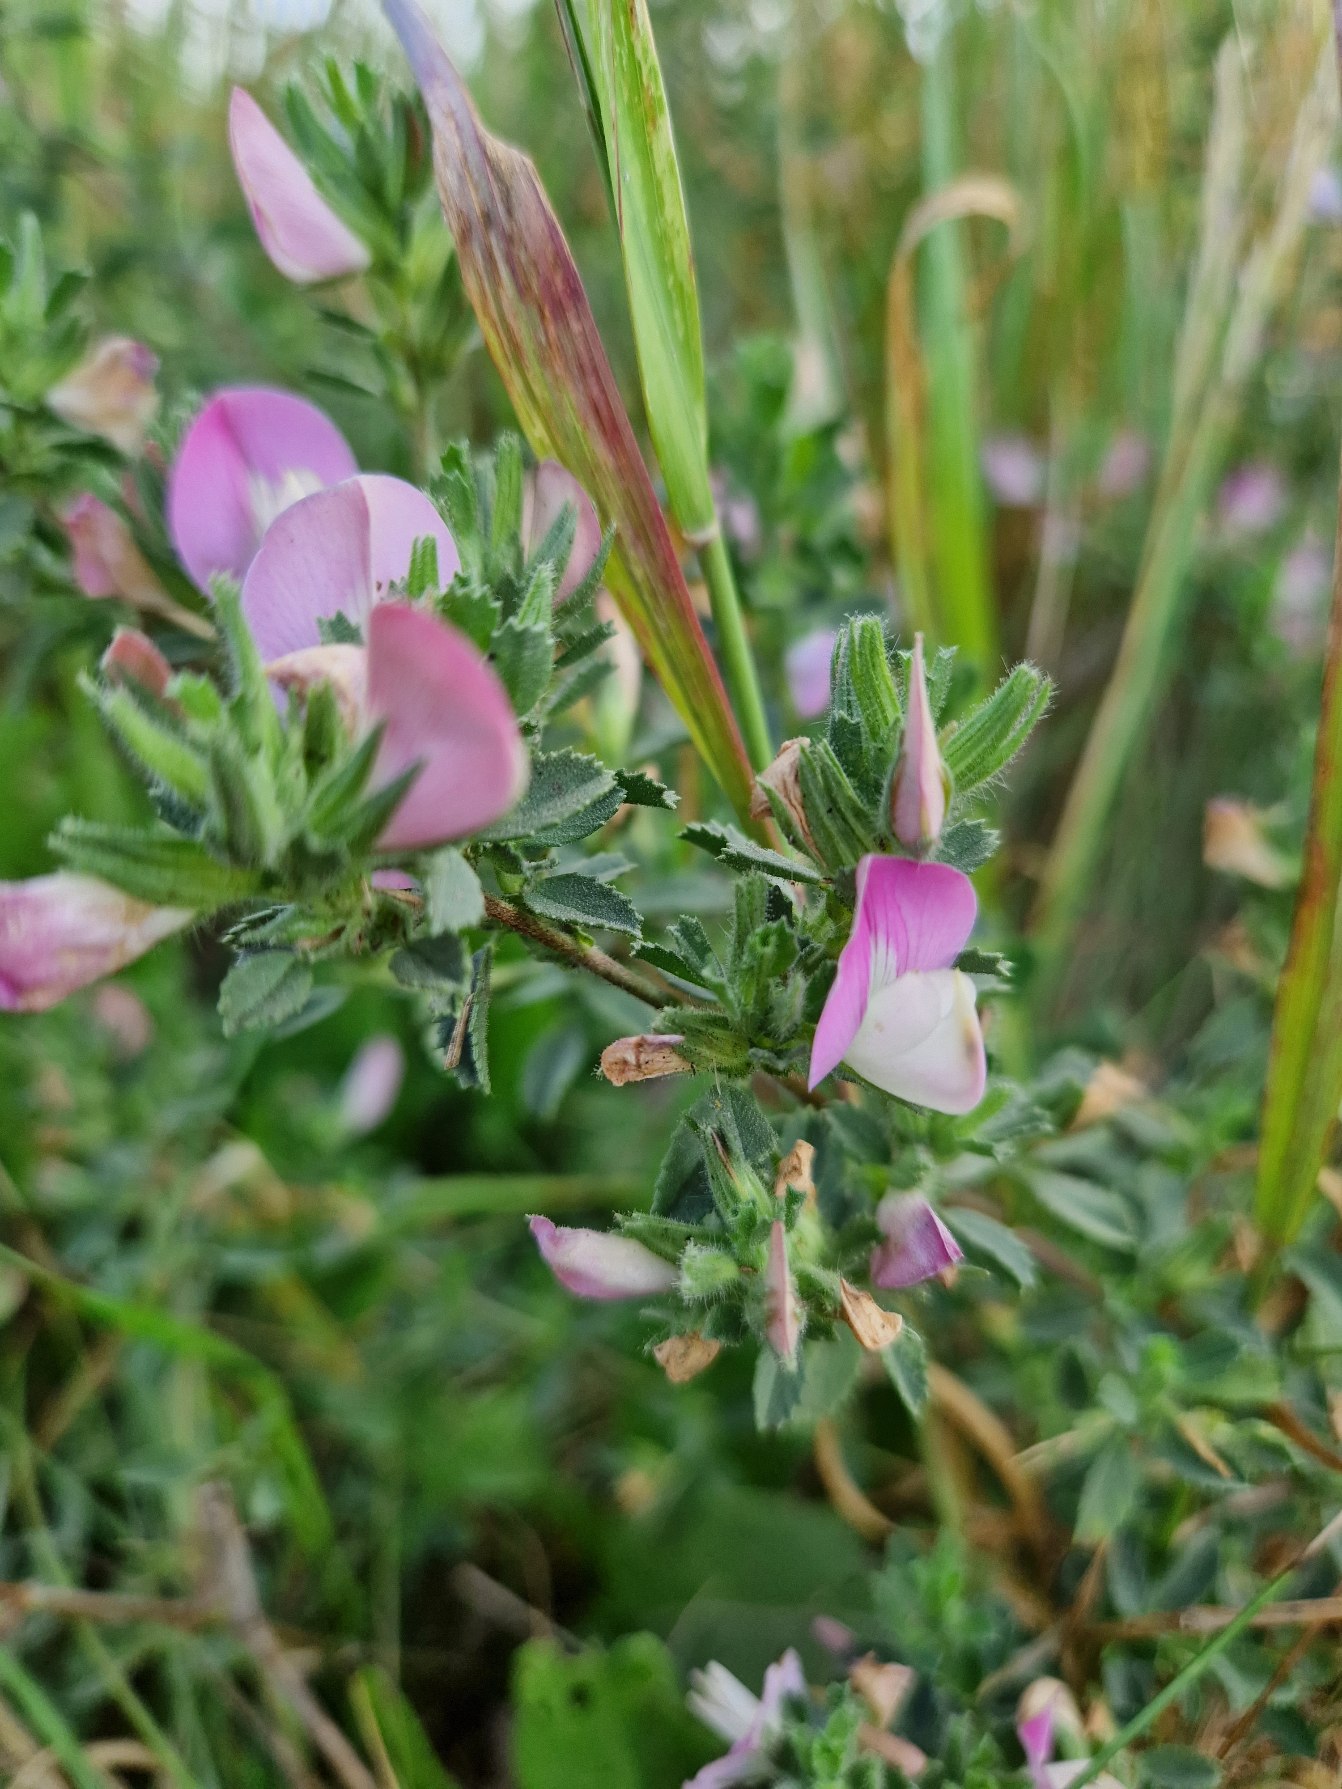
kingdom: Plantae
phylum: Tracheophyta
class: Magnoliopsida
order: Fabales
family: Fabaceae
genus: Ononis
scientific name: Ononis spinosa
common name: Mark-krageklo
